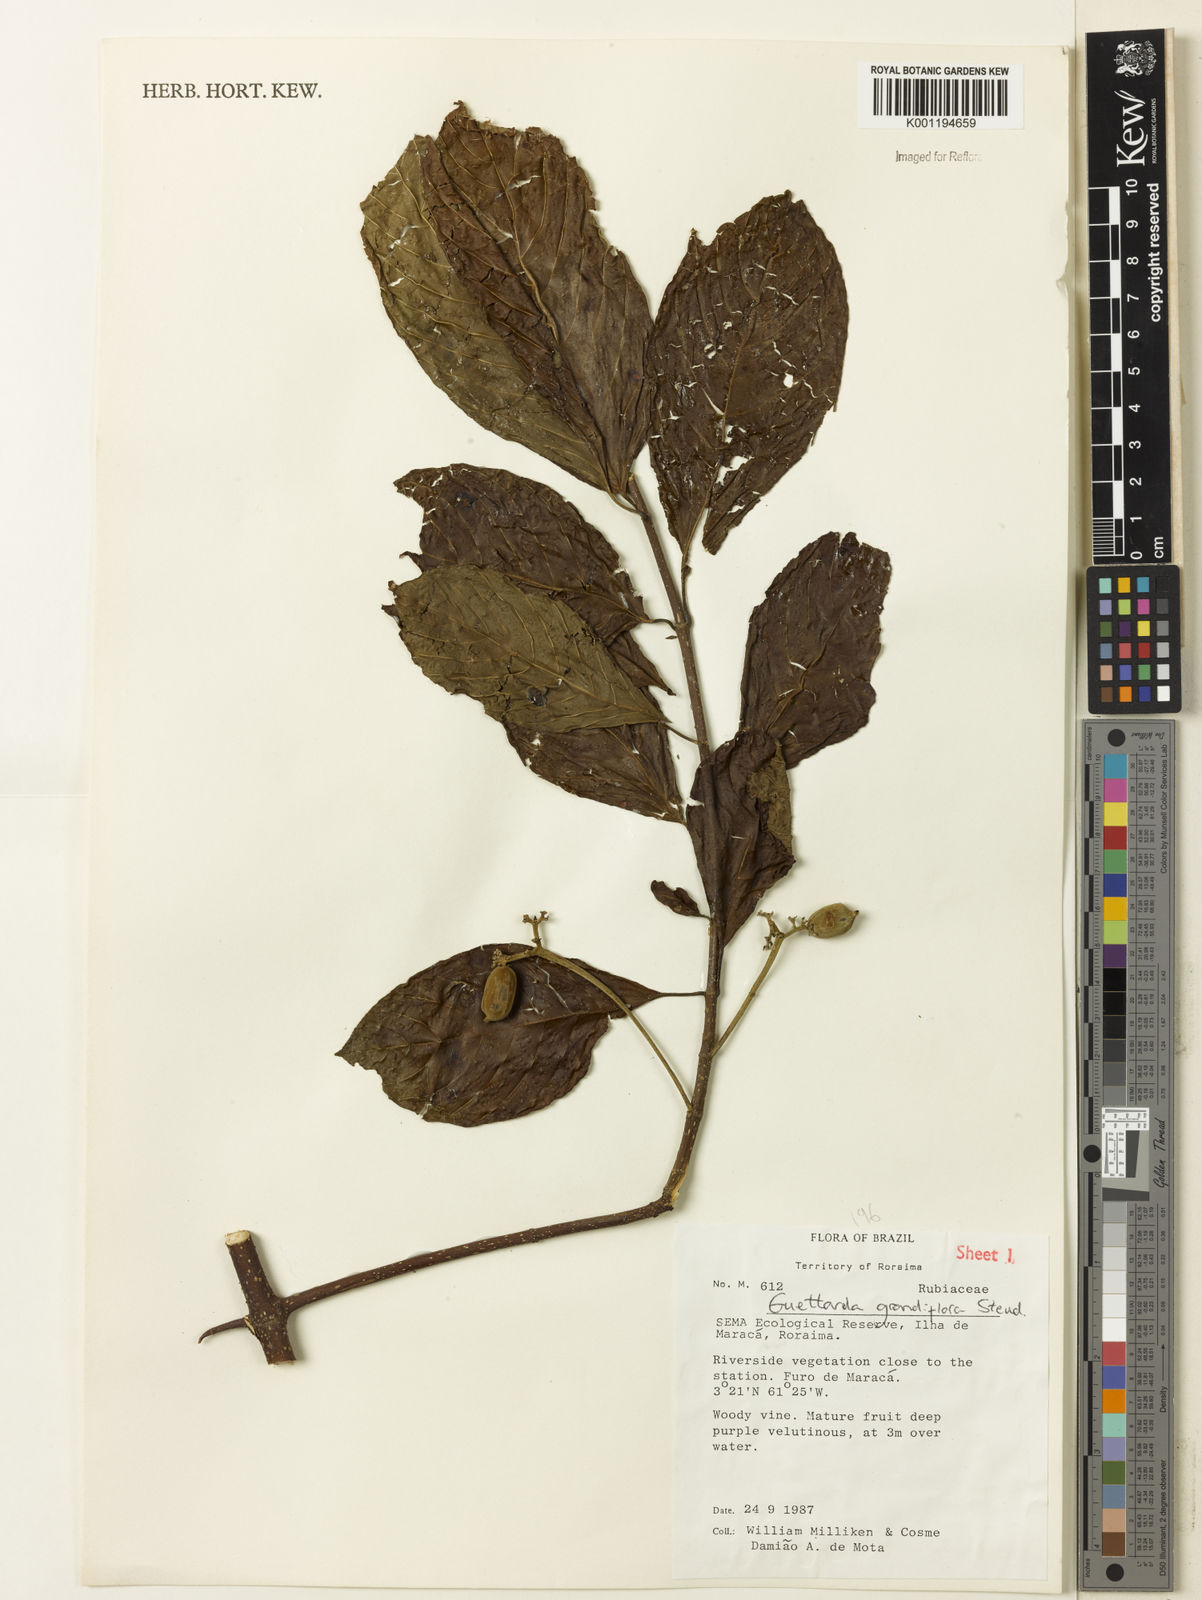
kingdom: Plantae
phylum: Tracheophyta
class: Magnoliopsida
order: Gentianales
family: Rubiaceae
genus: Guettarda
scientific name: Guettarda aromatica
